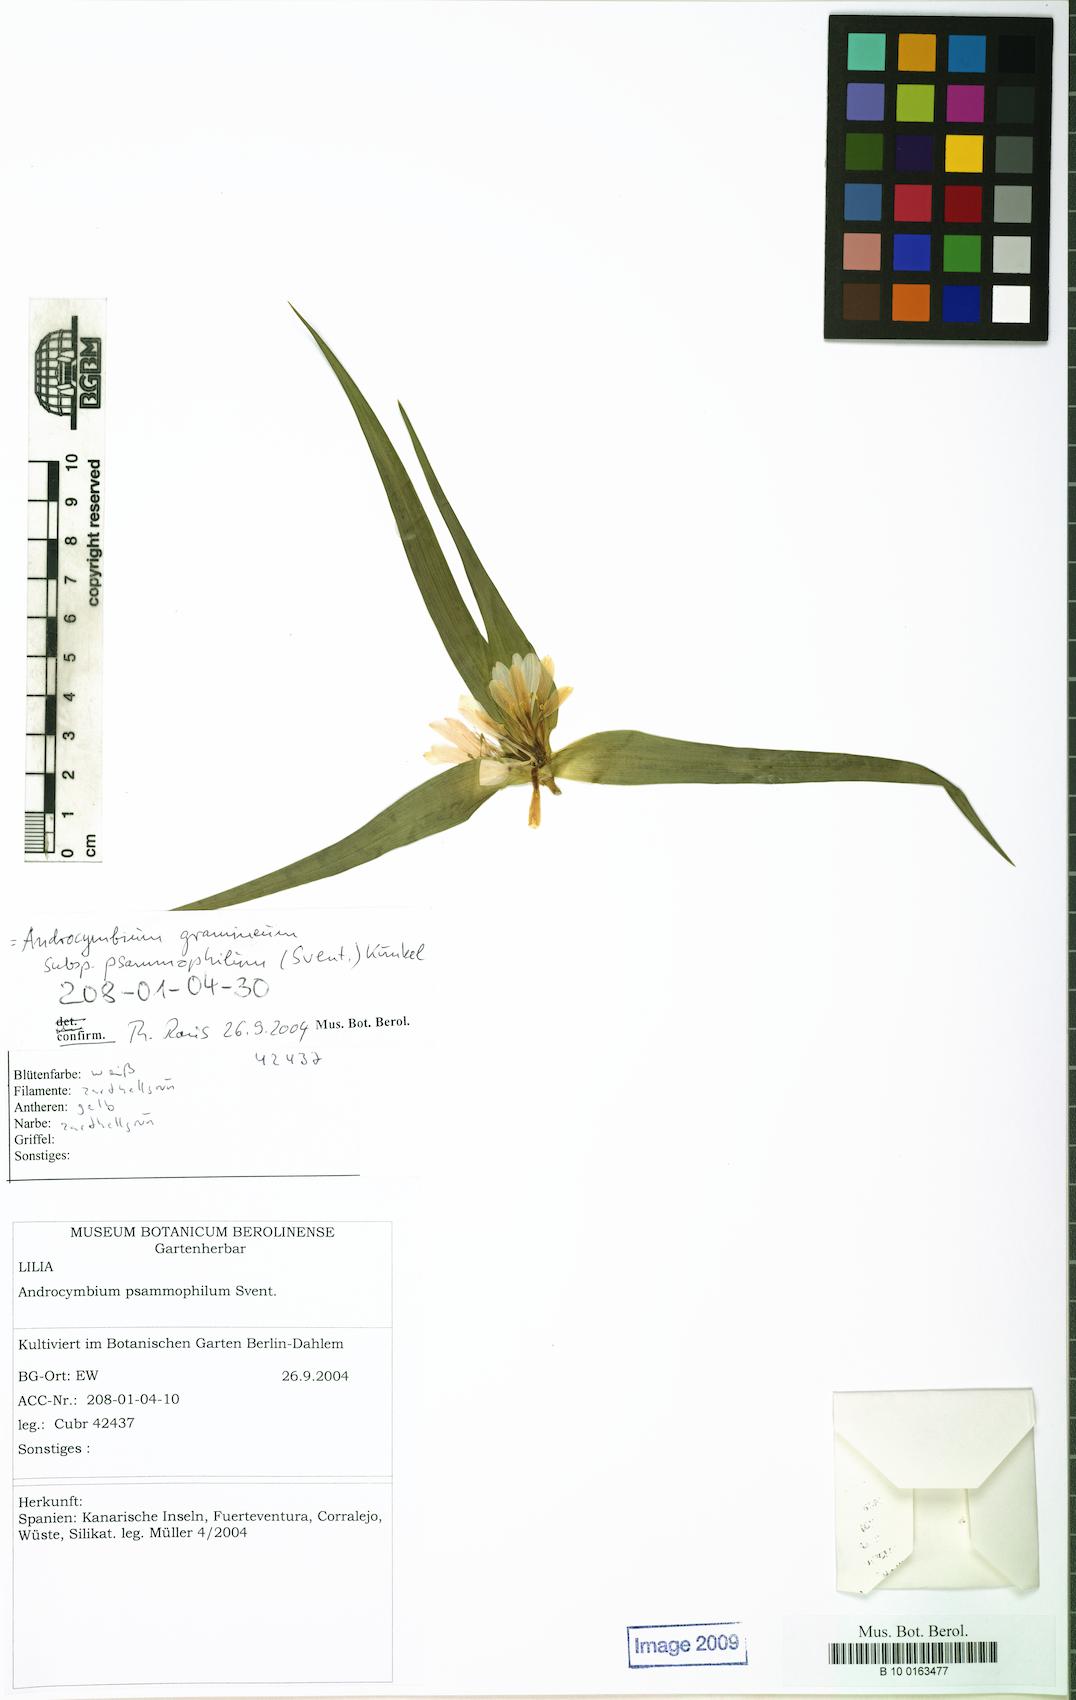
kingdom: Plantae
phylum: Tracheophyta
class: Liliopsida
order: Liliales
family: Colchicaceae
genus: Colchicum
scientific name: Colchicum psammophilum
